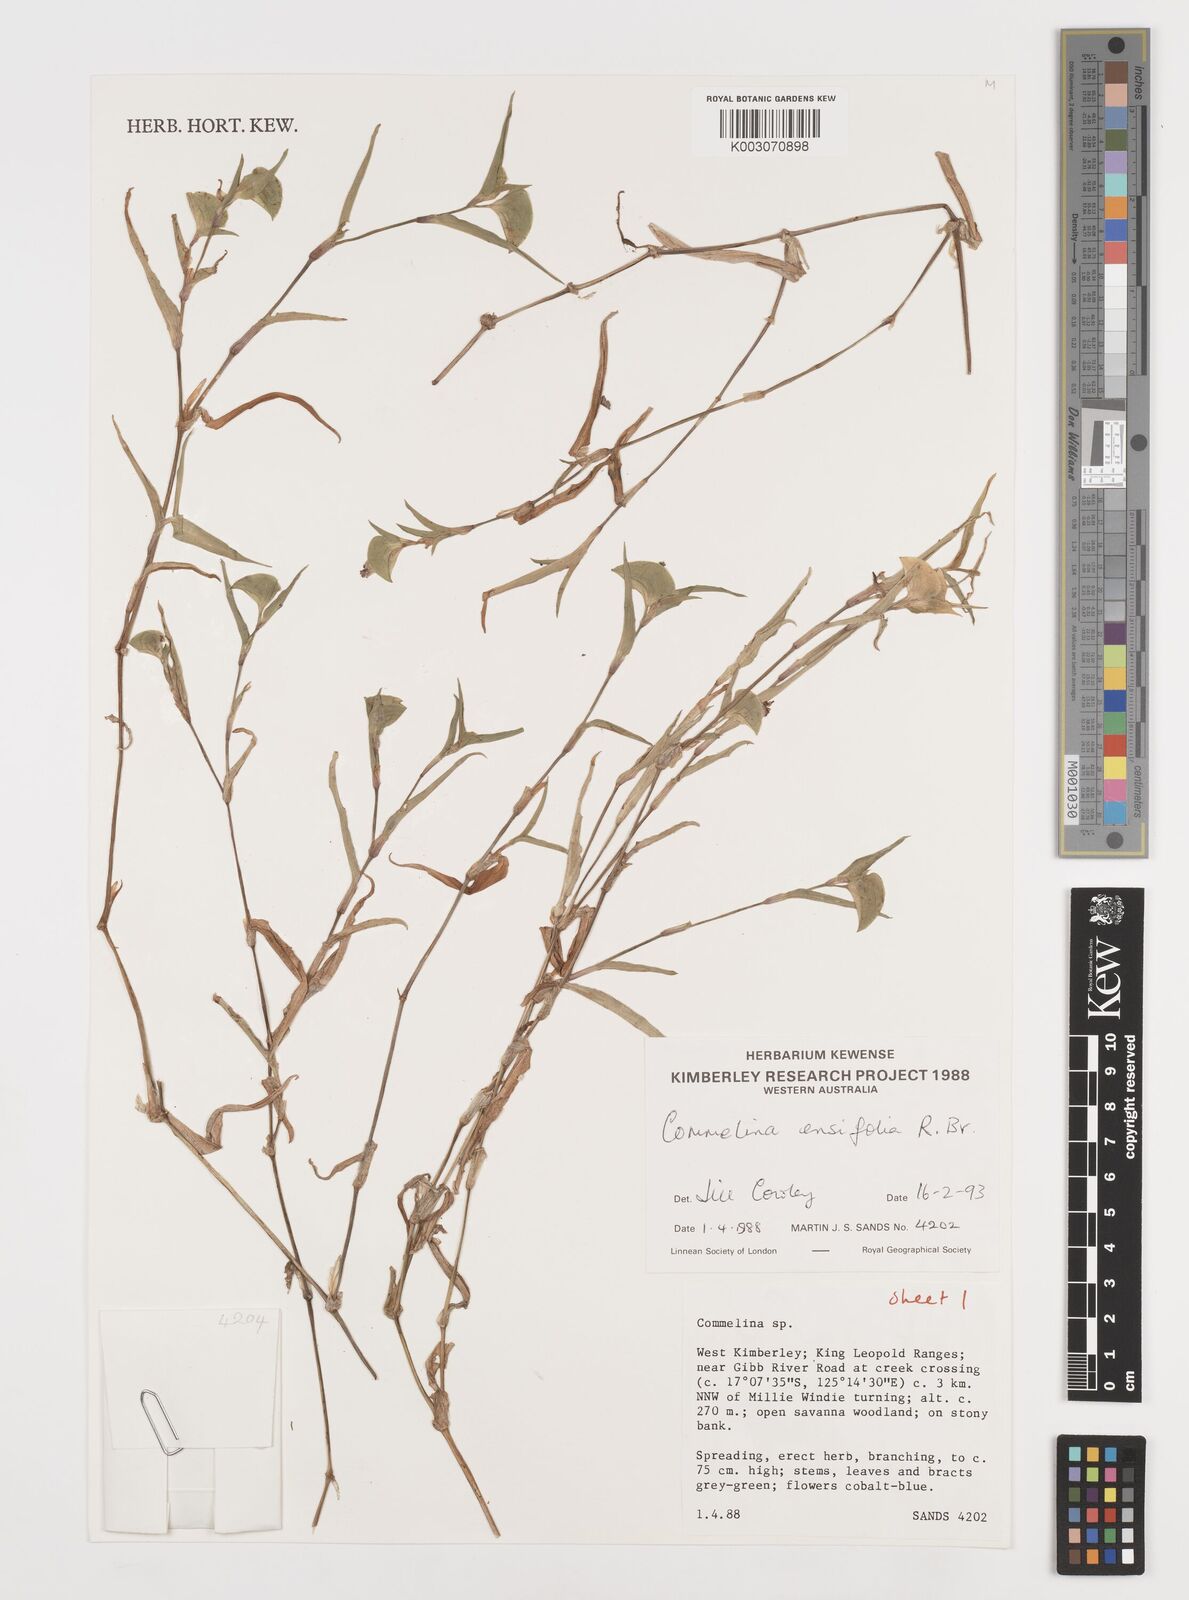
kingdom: Plantae
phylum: Tracheophyta
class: Liliopsida
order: Commelinales
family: Commelinaceae
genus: Commelina
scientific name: Commelina ensifolia
